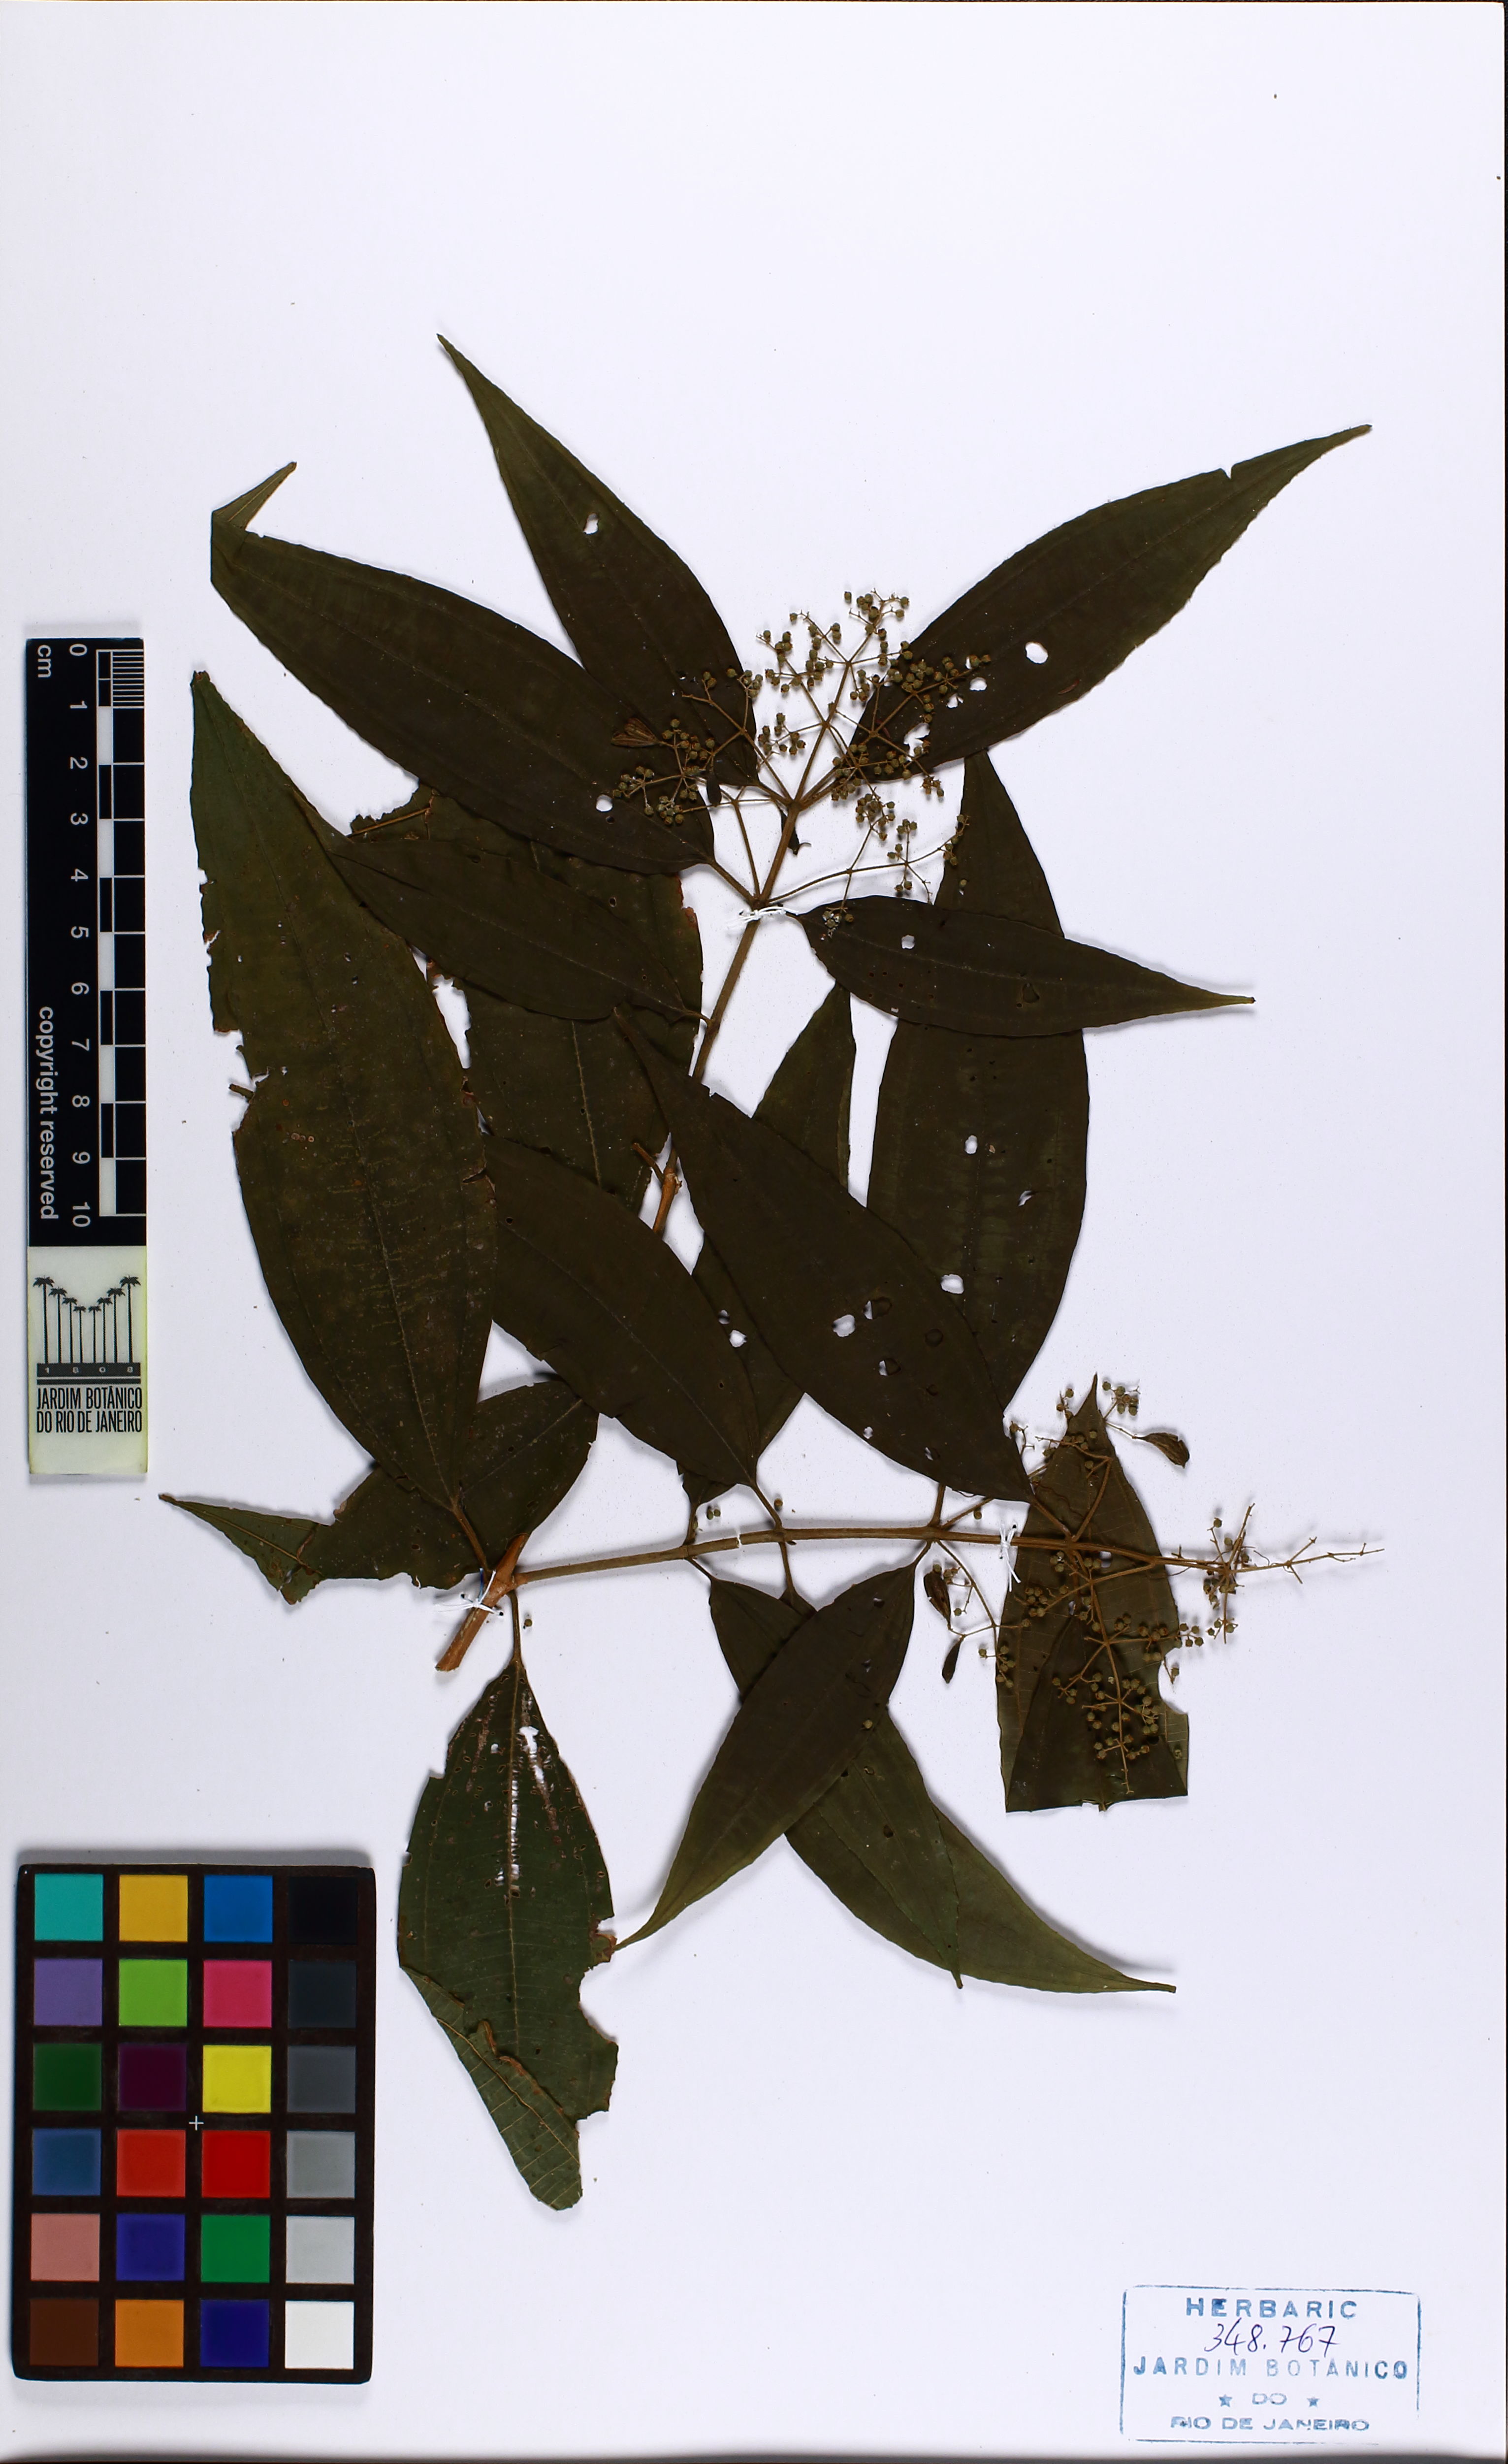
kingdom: Plantae
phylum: Tracheophyta
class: Magnoliopsida
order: Myrtales
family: Melastomataceae
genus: Miconia
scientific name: Miconia pusilliflora
